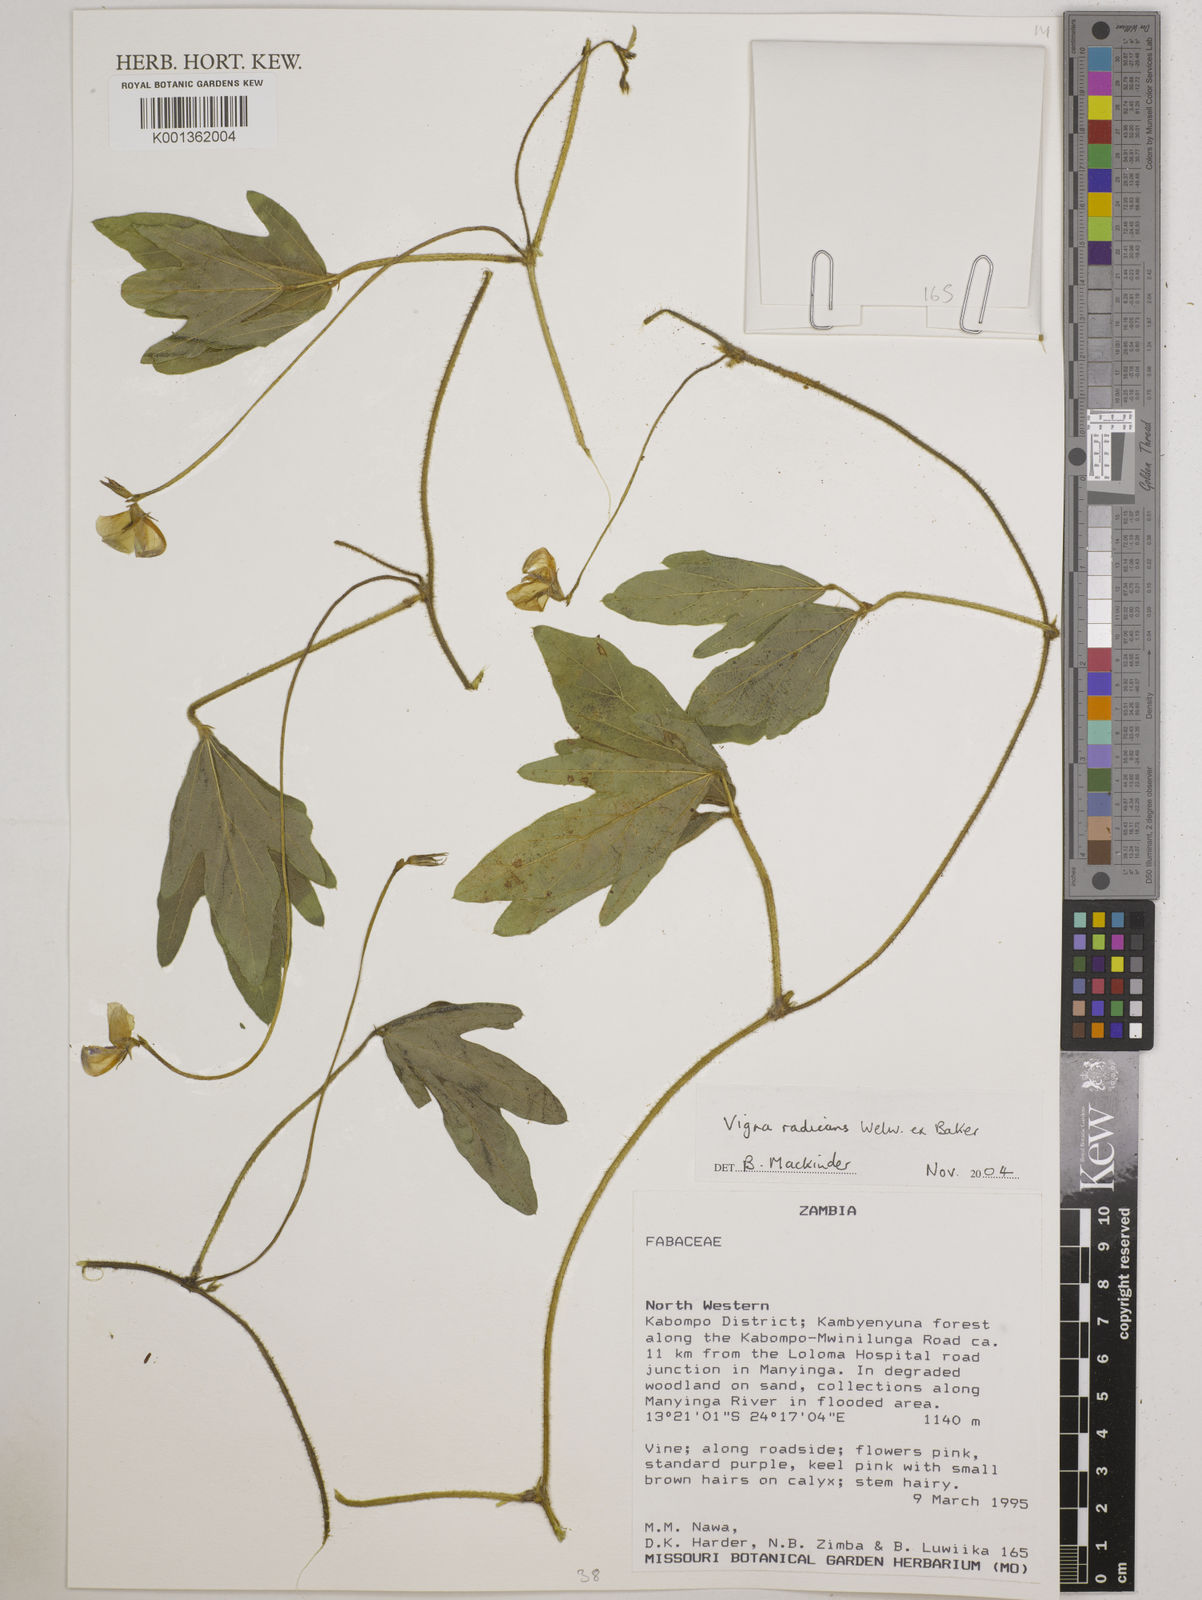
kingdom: Plantae
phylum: Tracheophyta
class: Magnoliopsida
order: Fabales
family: Fabaceae
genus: Vigna
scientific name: Vigna radicans
